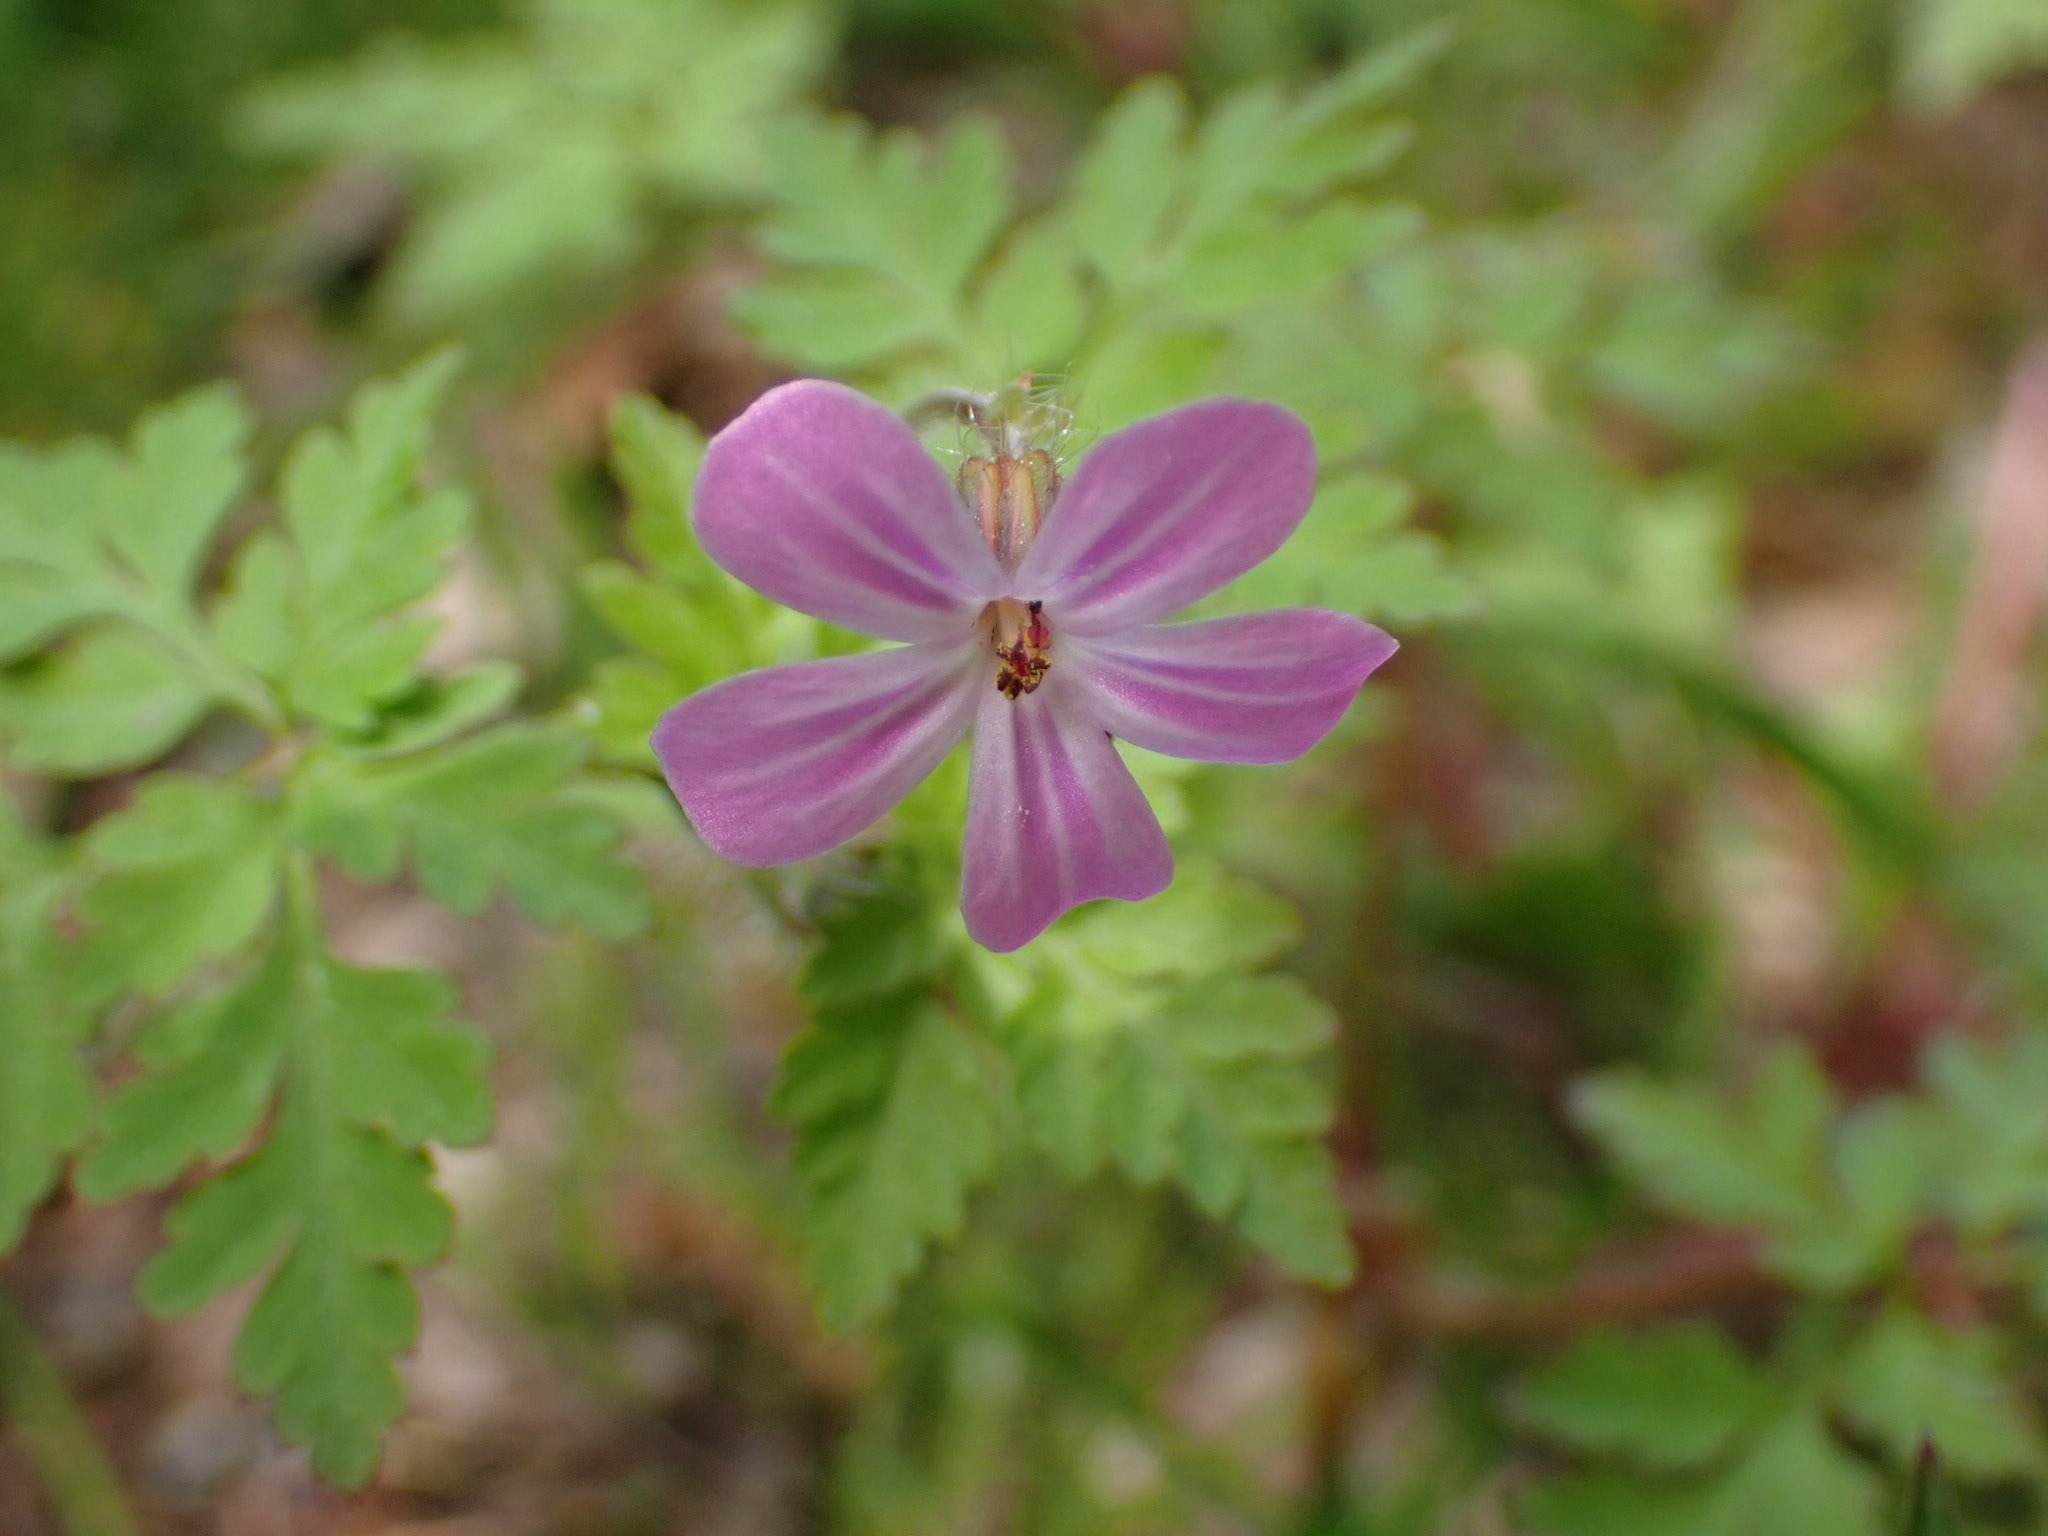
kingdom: Plantae
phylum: Tracheophyta
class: Magnoliopsida
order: Geraniales
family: Geraniaceae
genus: Geranium
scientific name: Geranium robertianum
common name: Stinkende storkenæb
